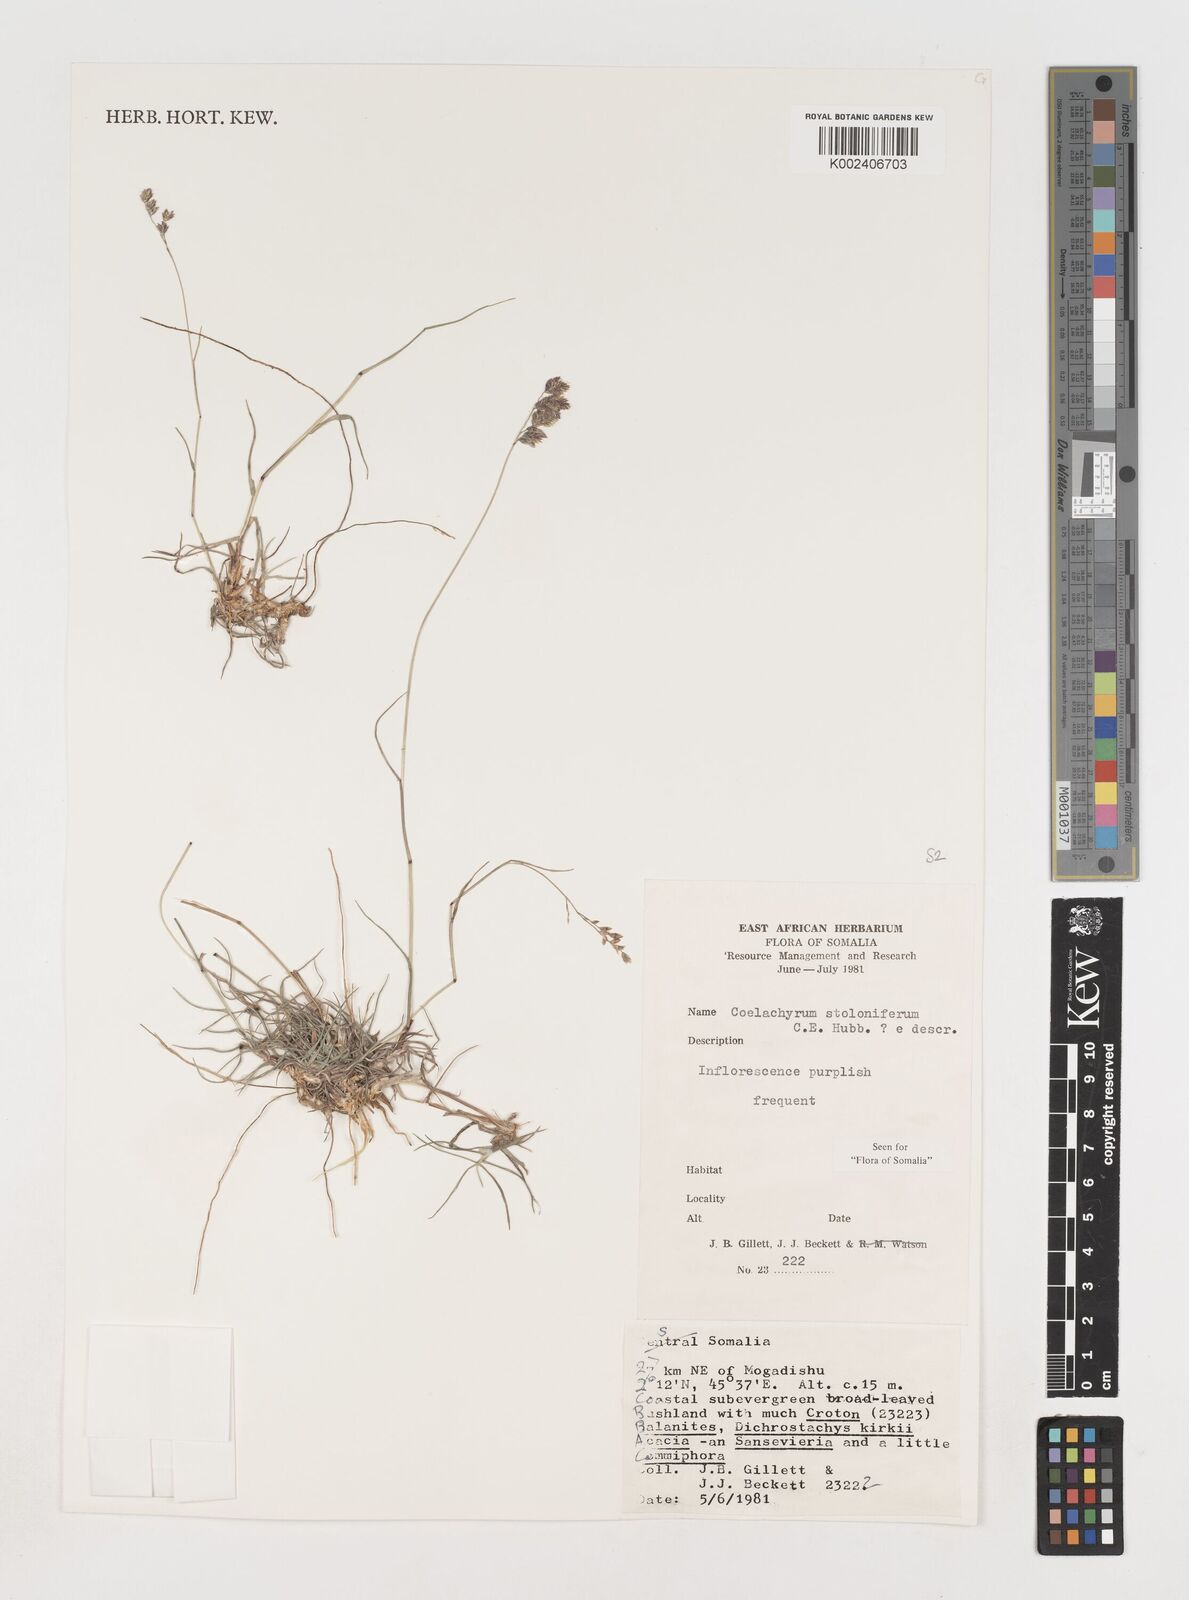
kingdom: Plantae
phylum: Tracheophyta
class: Liliopsida
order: Poales
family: Poaceae
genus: Coelachyrum
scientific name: Coelachyrum piercei
